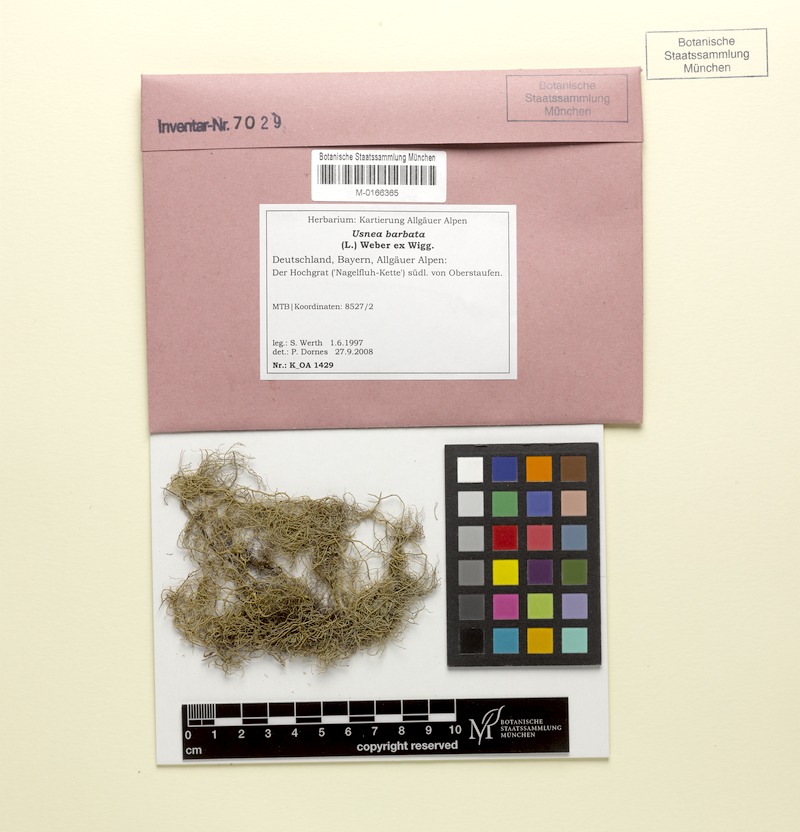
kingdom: Fungi
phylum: Ascomycota
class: Lecanoromycetes
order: Lecanorales
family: Parmeliaceae
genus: Usnea
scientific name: Usnea barbata
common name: Old man's beard lichen
